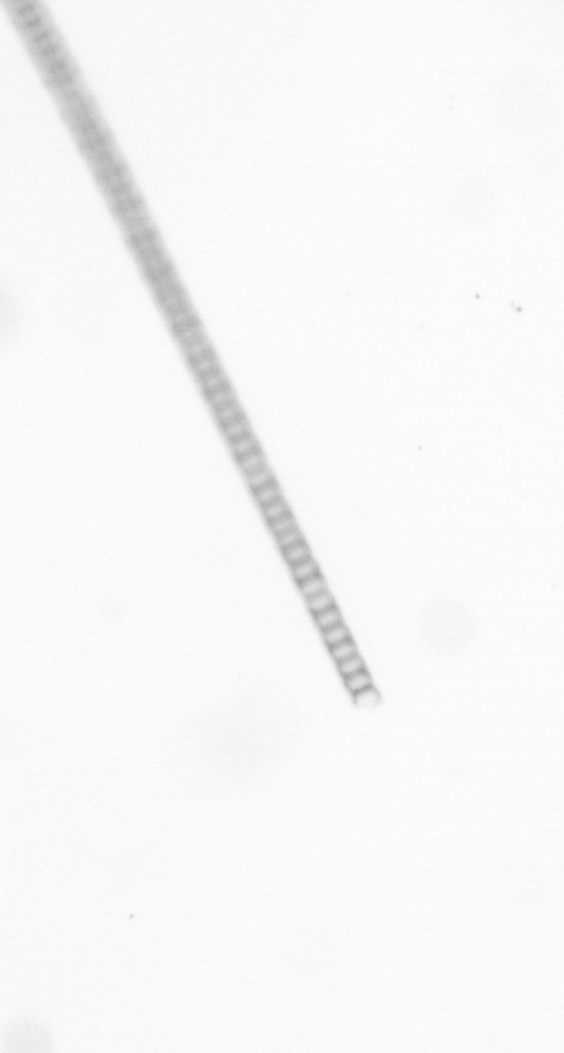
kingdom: Chromista
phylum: Ochrophyta
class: Bacillariophyceae
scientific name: Bacillariophyceae
